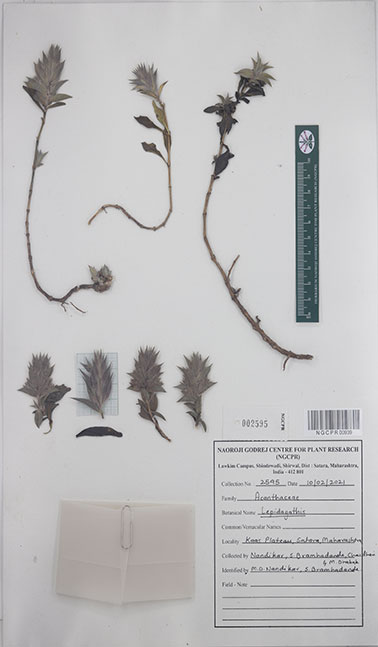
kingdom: Plantae
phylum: Tracheophyta
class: Magnoliopsida
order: Lamiales
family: Acanthaceae
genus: Lepidagathis
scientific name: Lepidagathis
